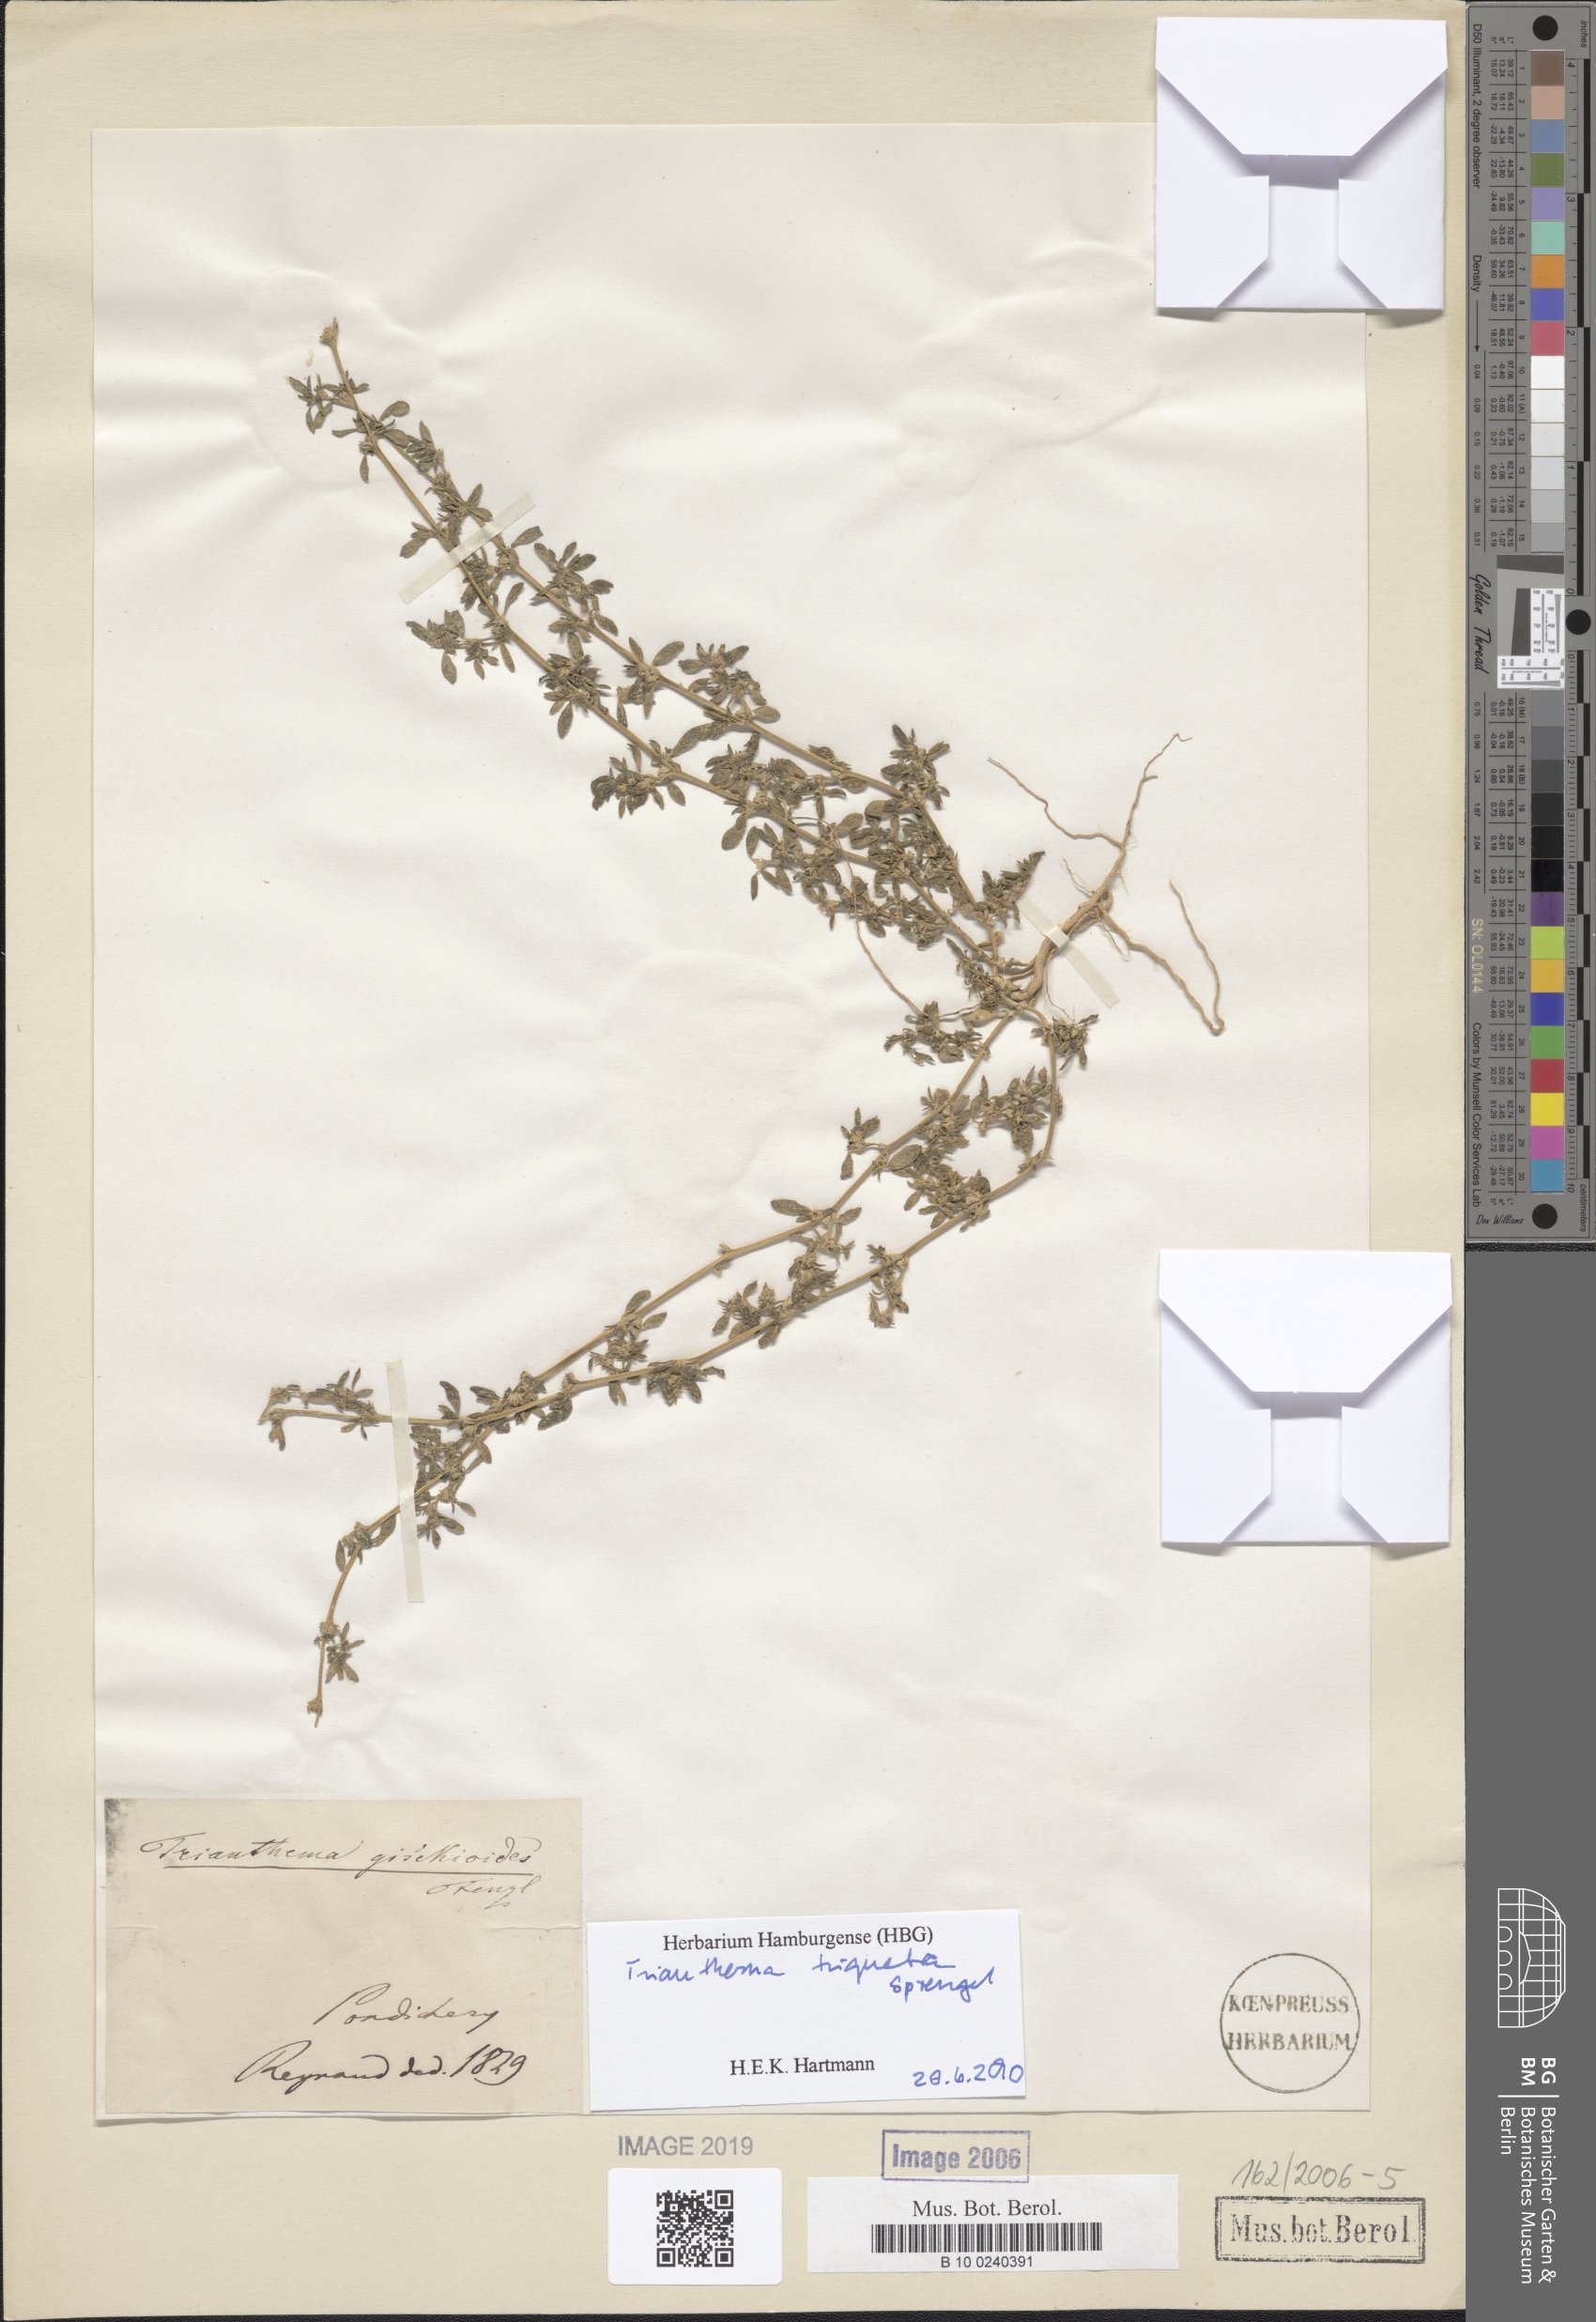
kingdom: Plantae
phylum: Tracheophyta
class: Magnoliopsida
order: Caryophyllales
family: Aizoaceae
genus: Trianthema
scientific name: Trianthema
